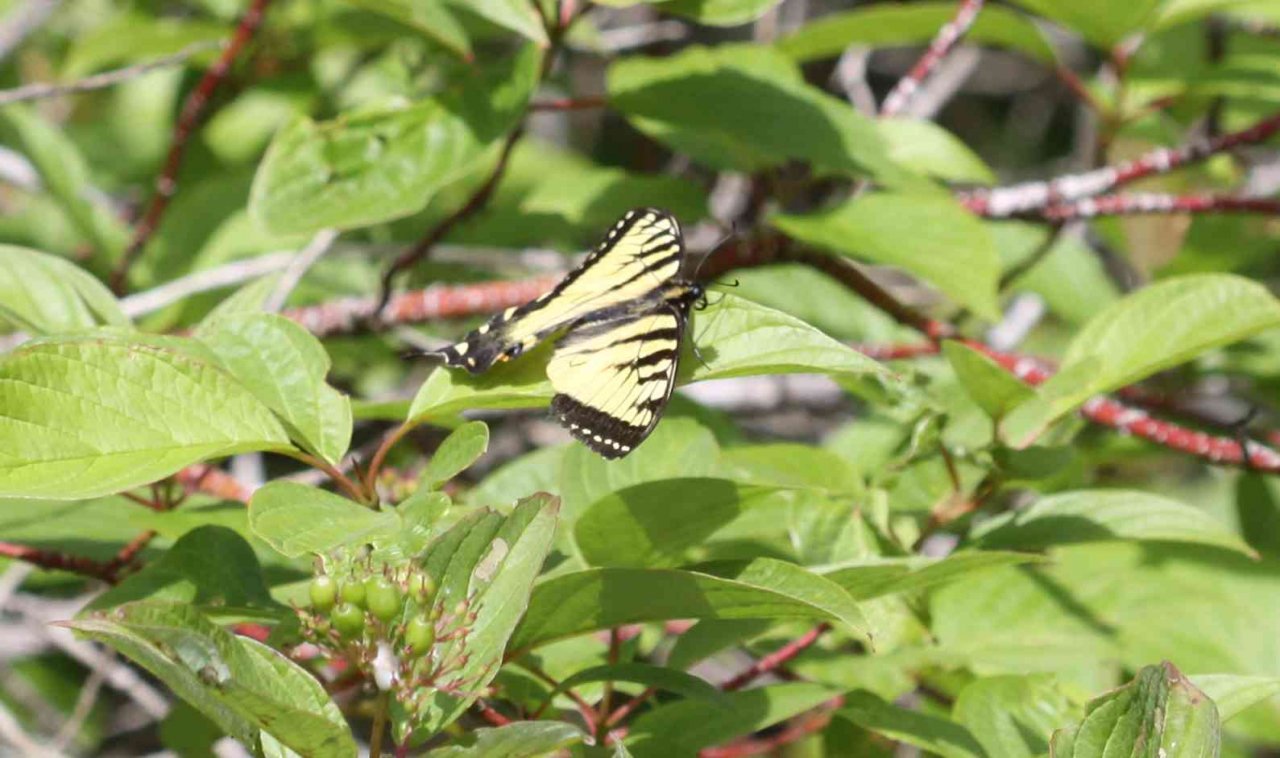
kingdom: Animalia
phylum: Arthropoda
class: Insecta
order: Lepidoptera
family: Papilionidae
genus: Pterourus
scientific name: Pterourus canadensis
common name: Canadian Tiger Swallowtail
